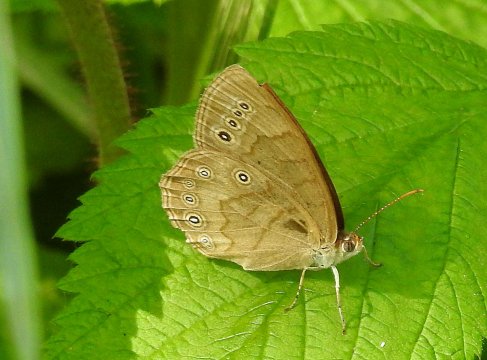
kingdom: Animalia
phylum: Arthropoda
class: Insecta
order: Lepidoptera
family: Nymphalidae
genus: Lethe
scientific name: Lethe eurydice
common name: Eyed Brown
